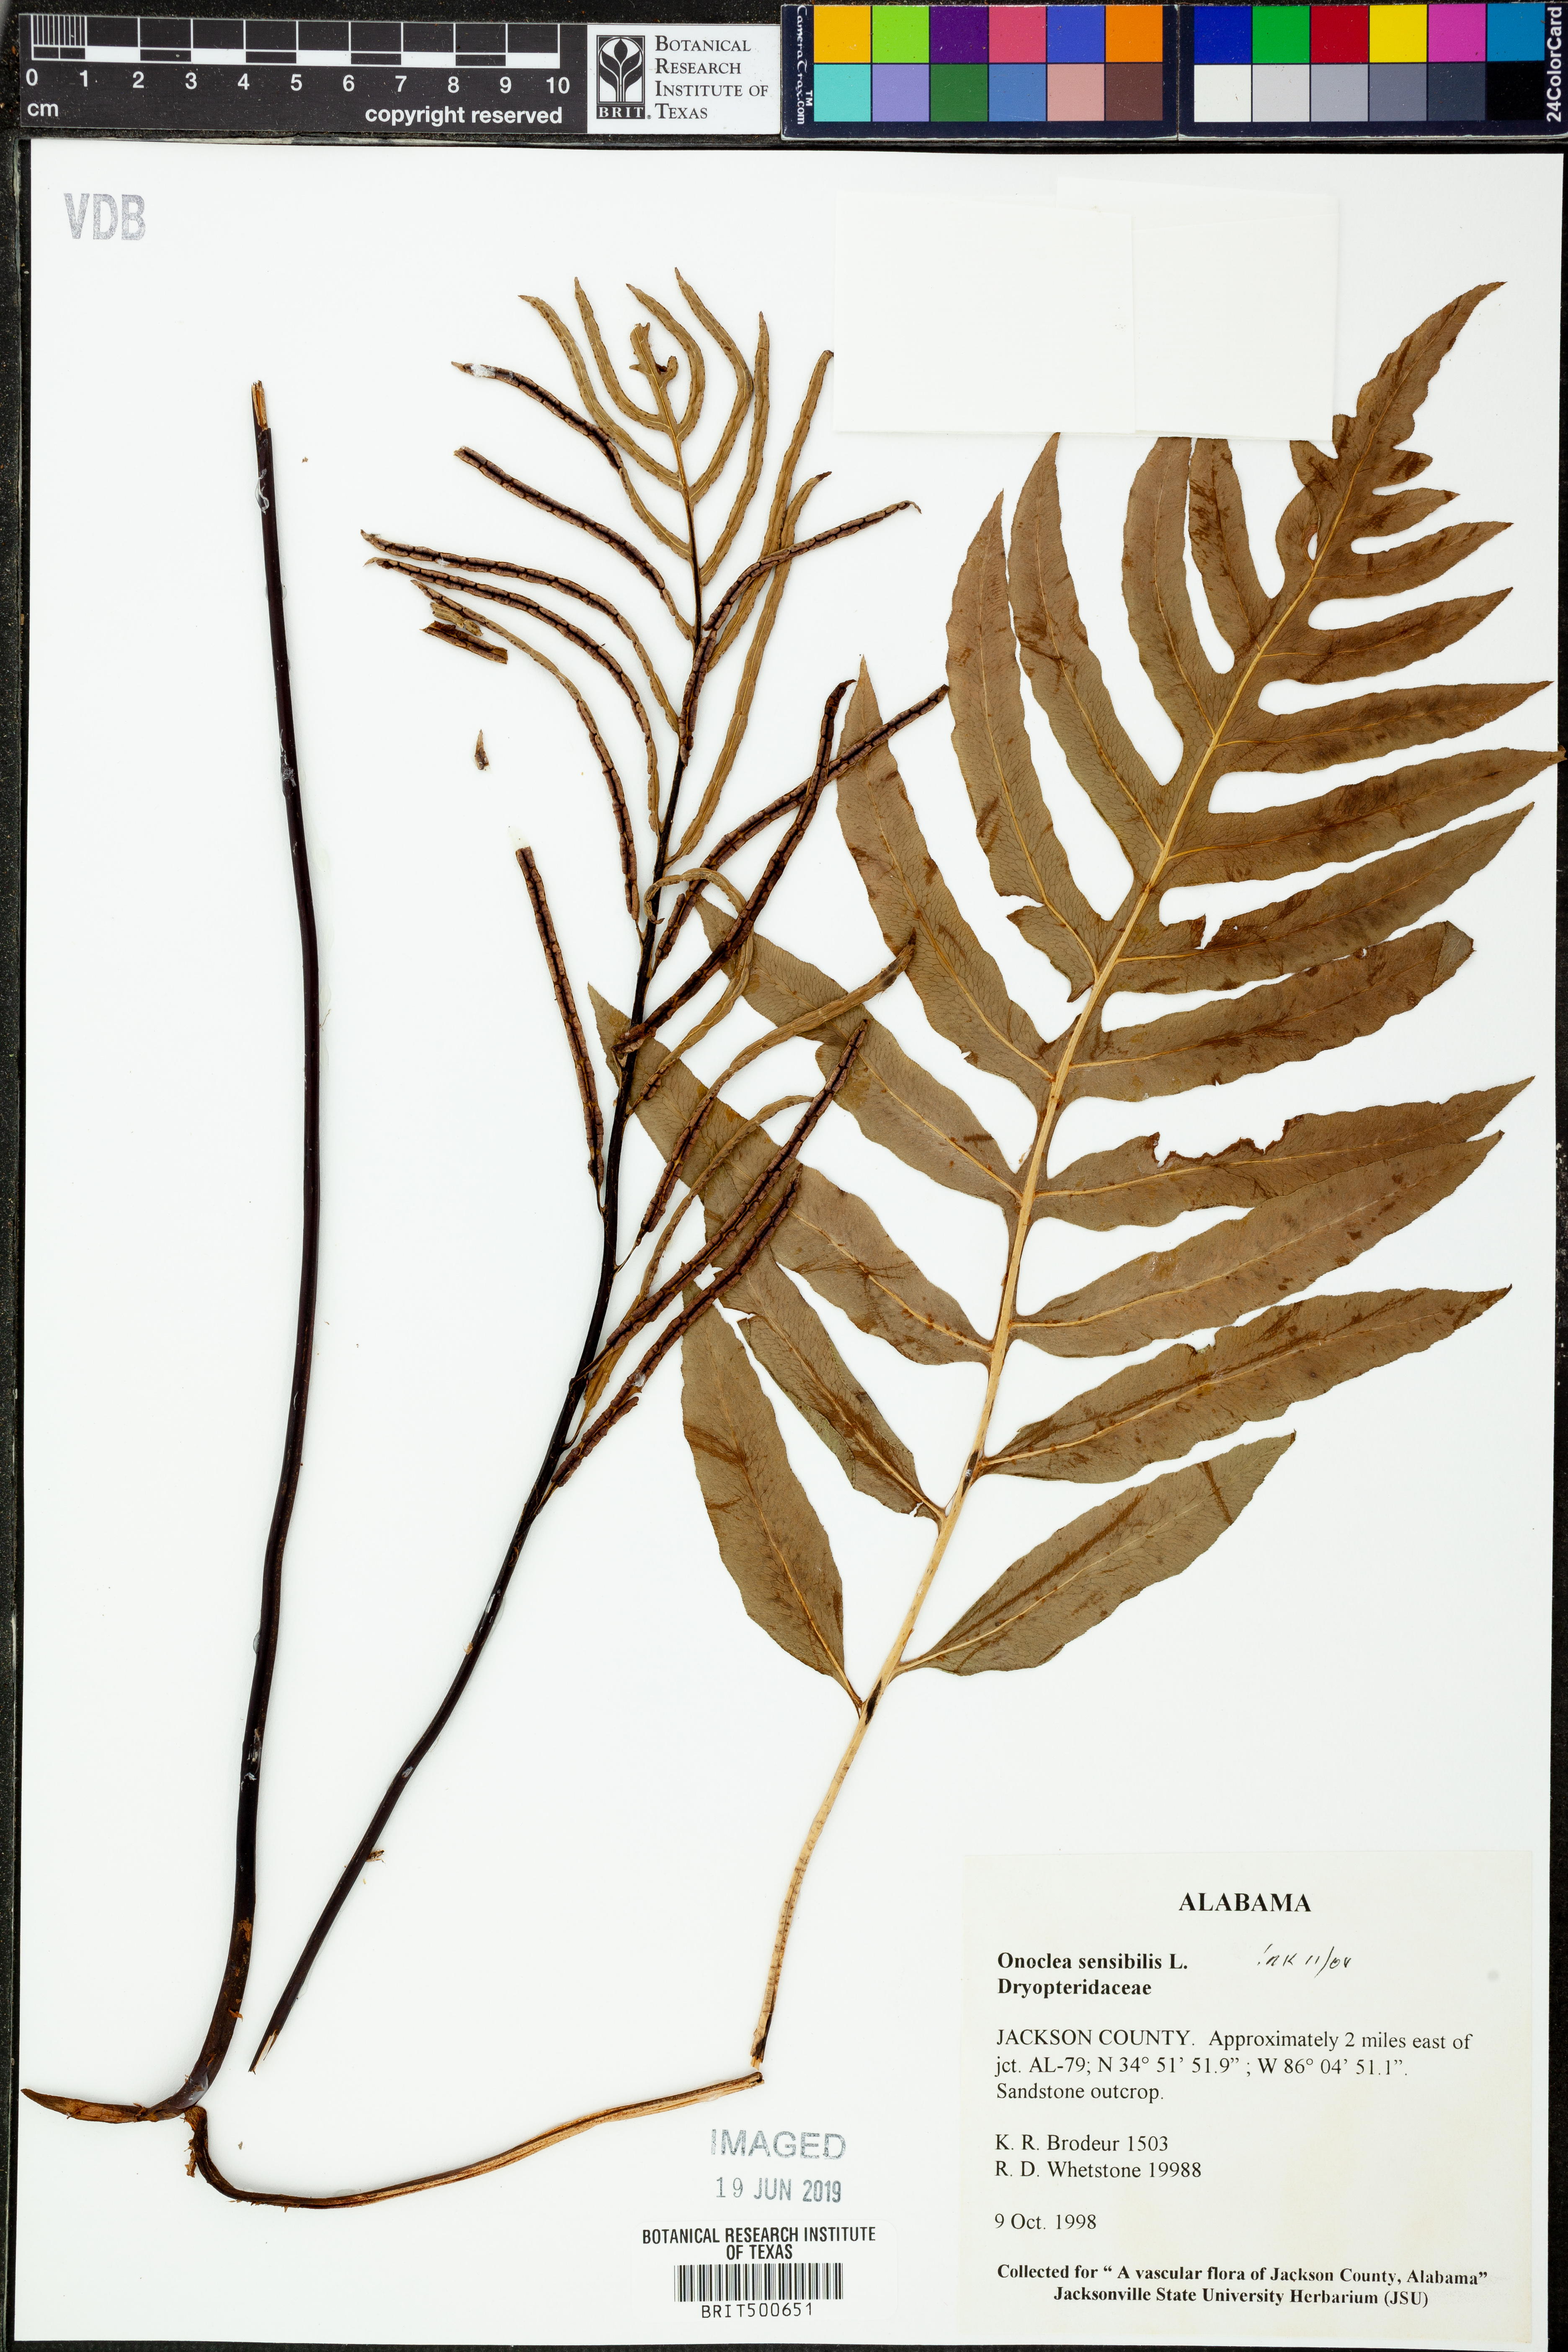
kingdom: Plantae
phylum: Tracheophyta
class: Polypodiopsida
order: Polypodiales
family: Blechnaceae
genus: Lorinseria
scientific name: Lorinseria areolata
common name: Dwarf chain fern
